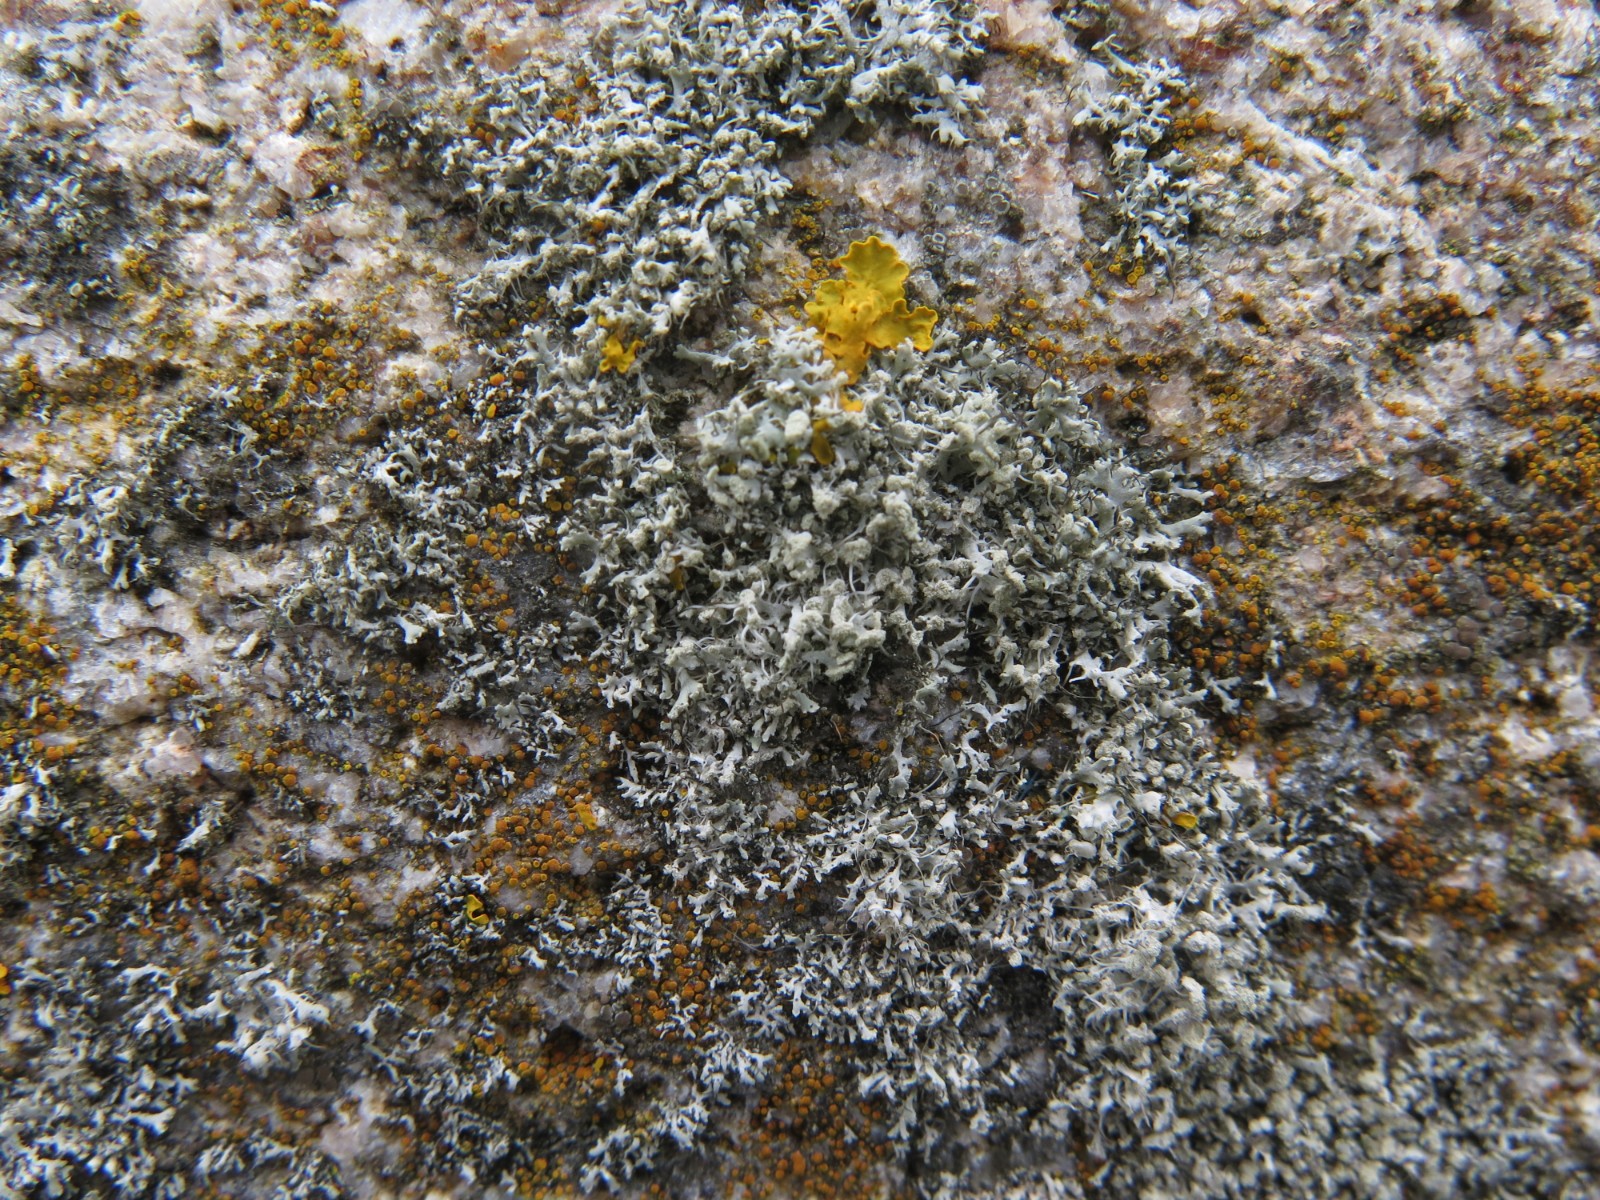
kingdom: Fungi
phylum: Ascomycota
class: Lecanoromycetes
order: Caliciales
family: Physciaceae
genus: Physcia
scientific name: Physcia adscendens
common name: hætte-rosetlav
